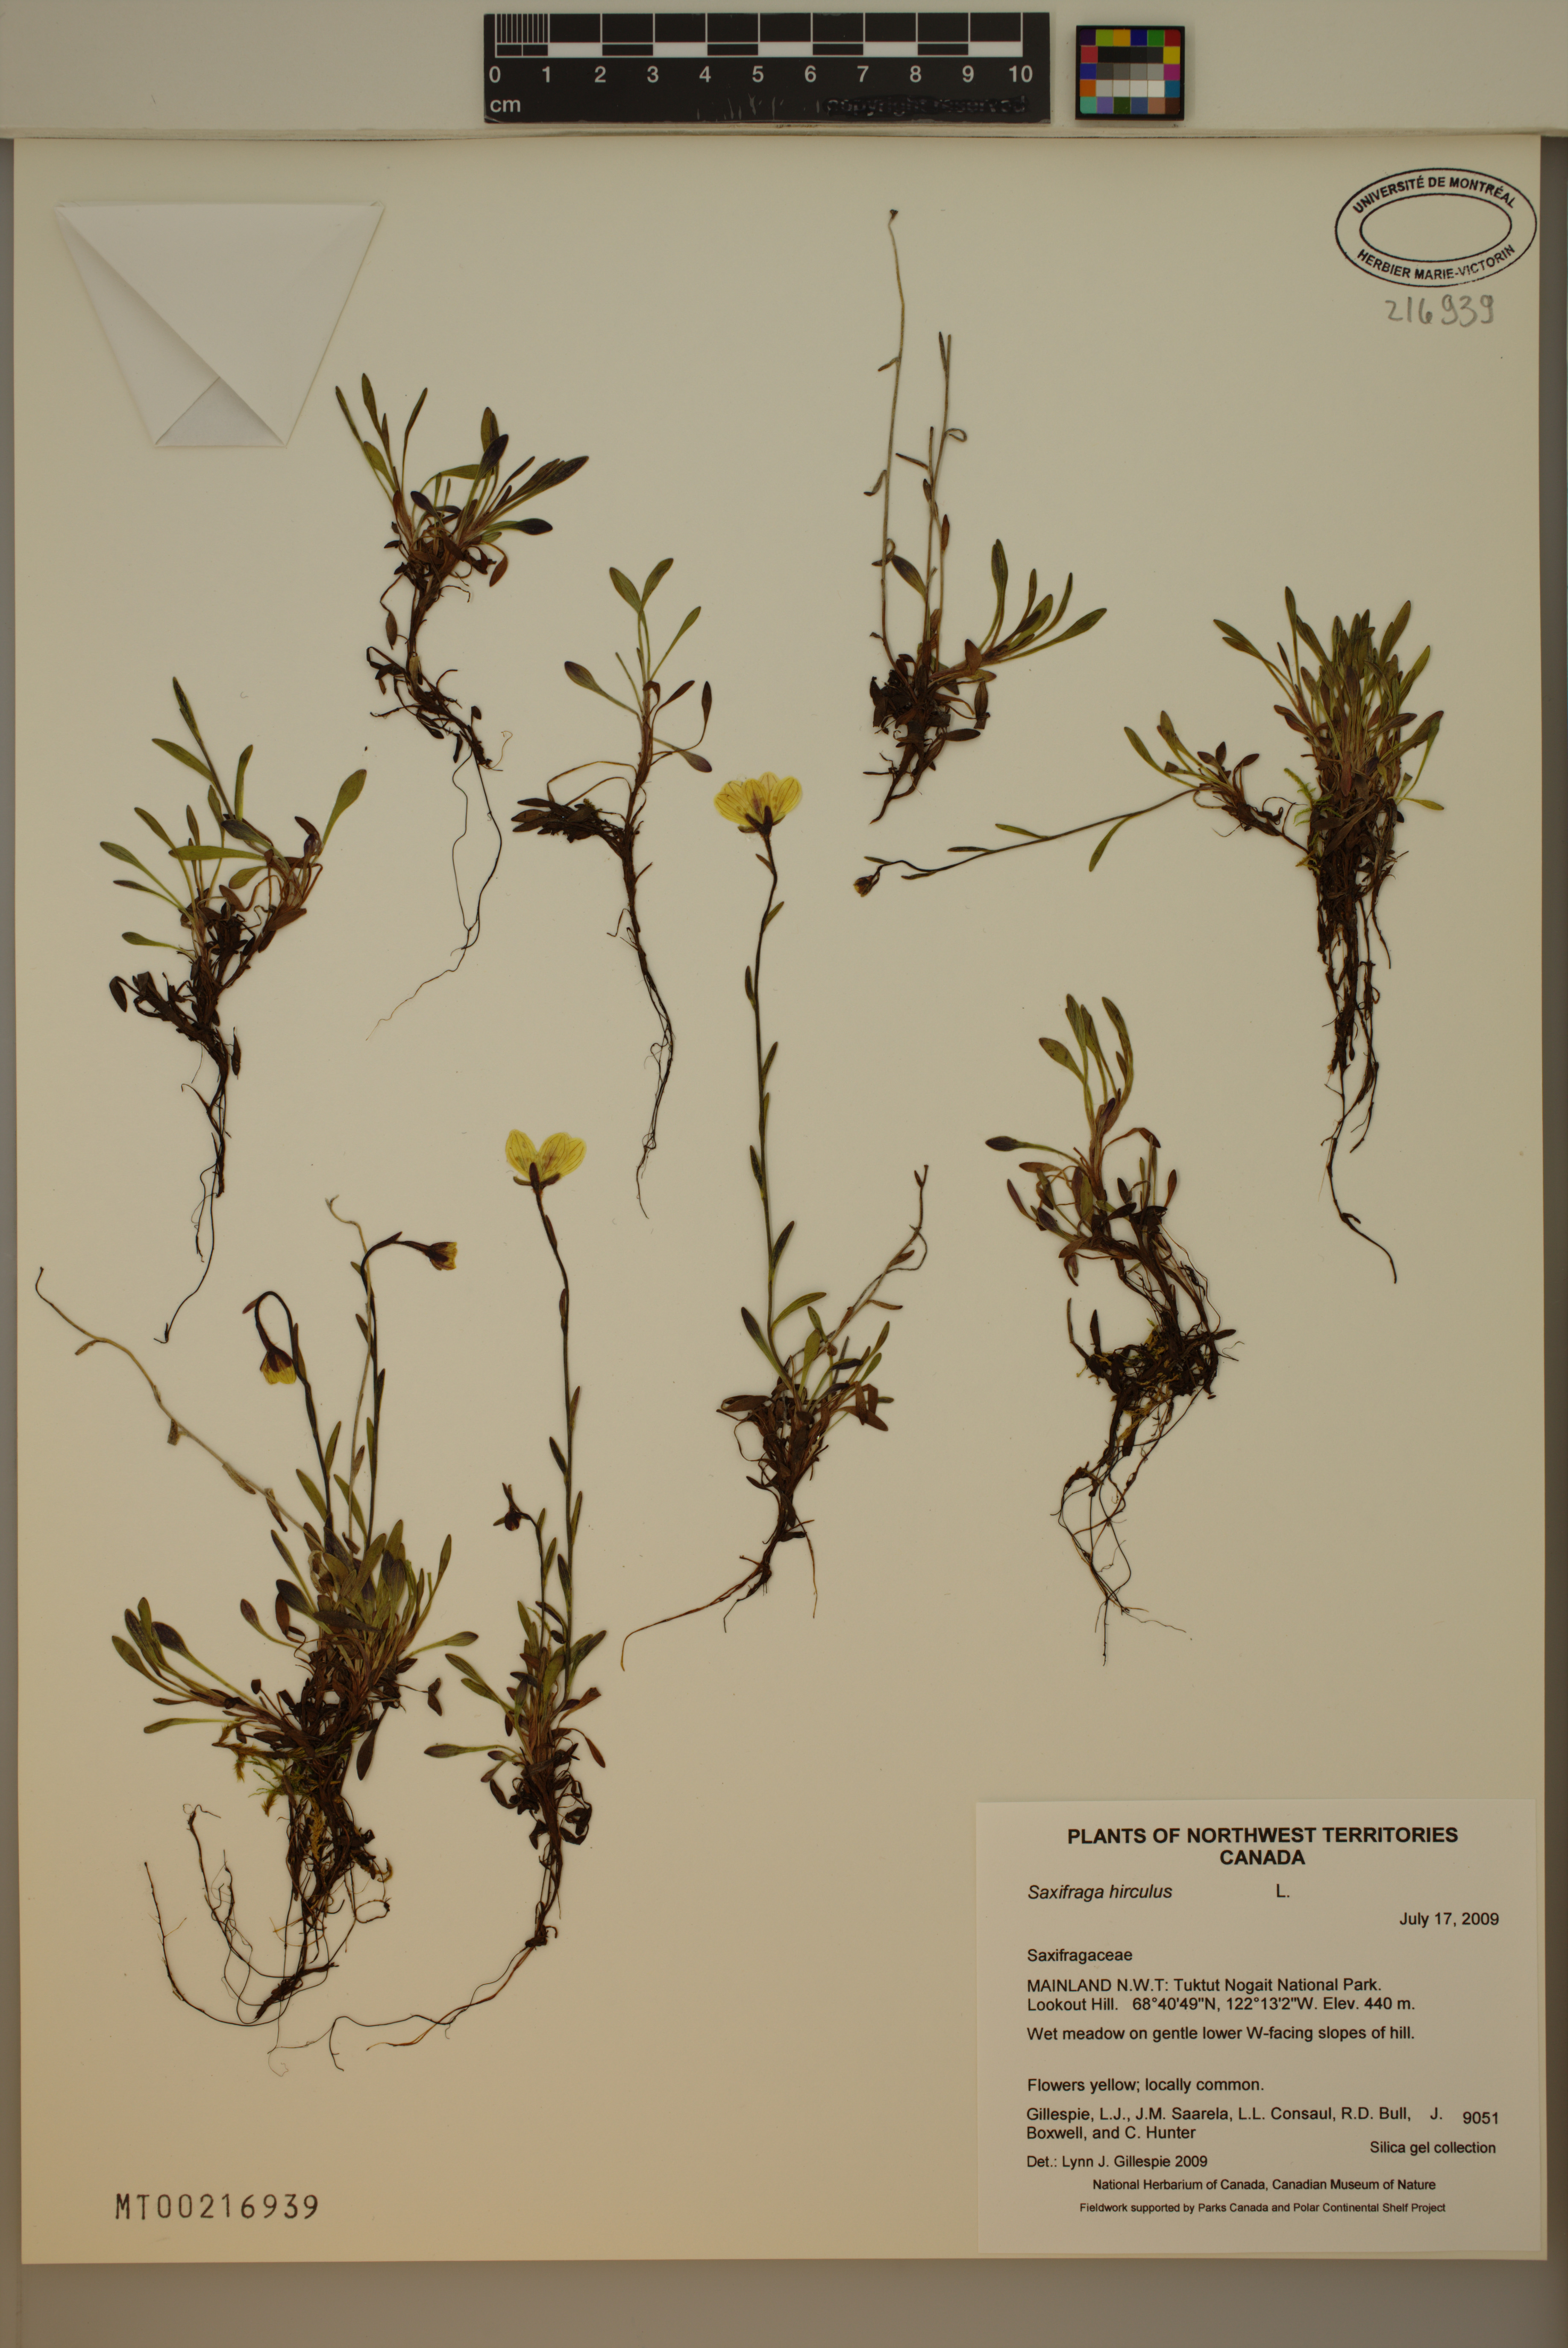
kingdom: Plantae
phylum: Tracheophyta
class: Magnoliopsida
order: Saxifragales
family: Saxifragaceae
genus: Saxifraga
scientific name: Saxifraga hirculus
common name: Yellow marsh saxifrage
